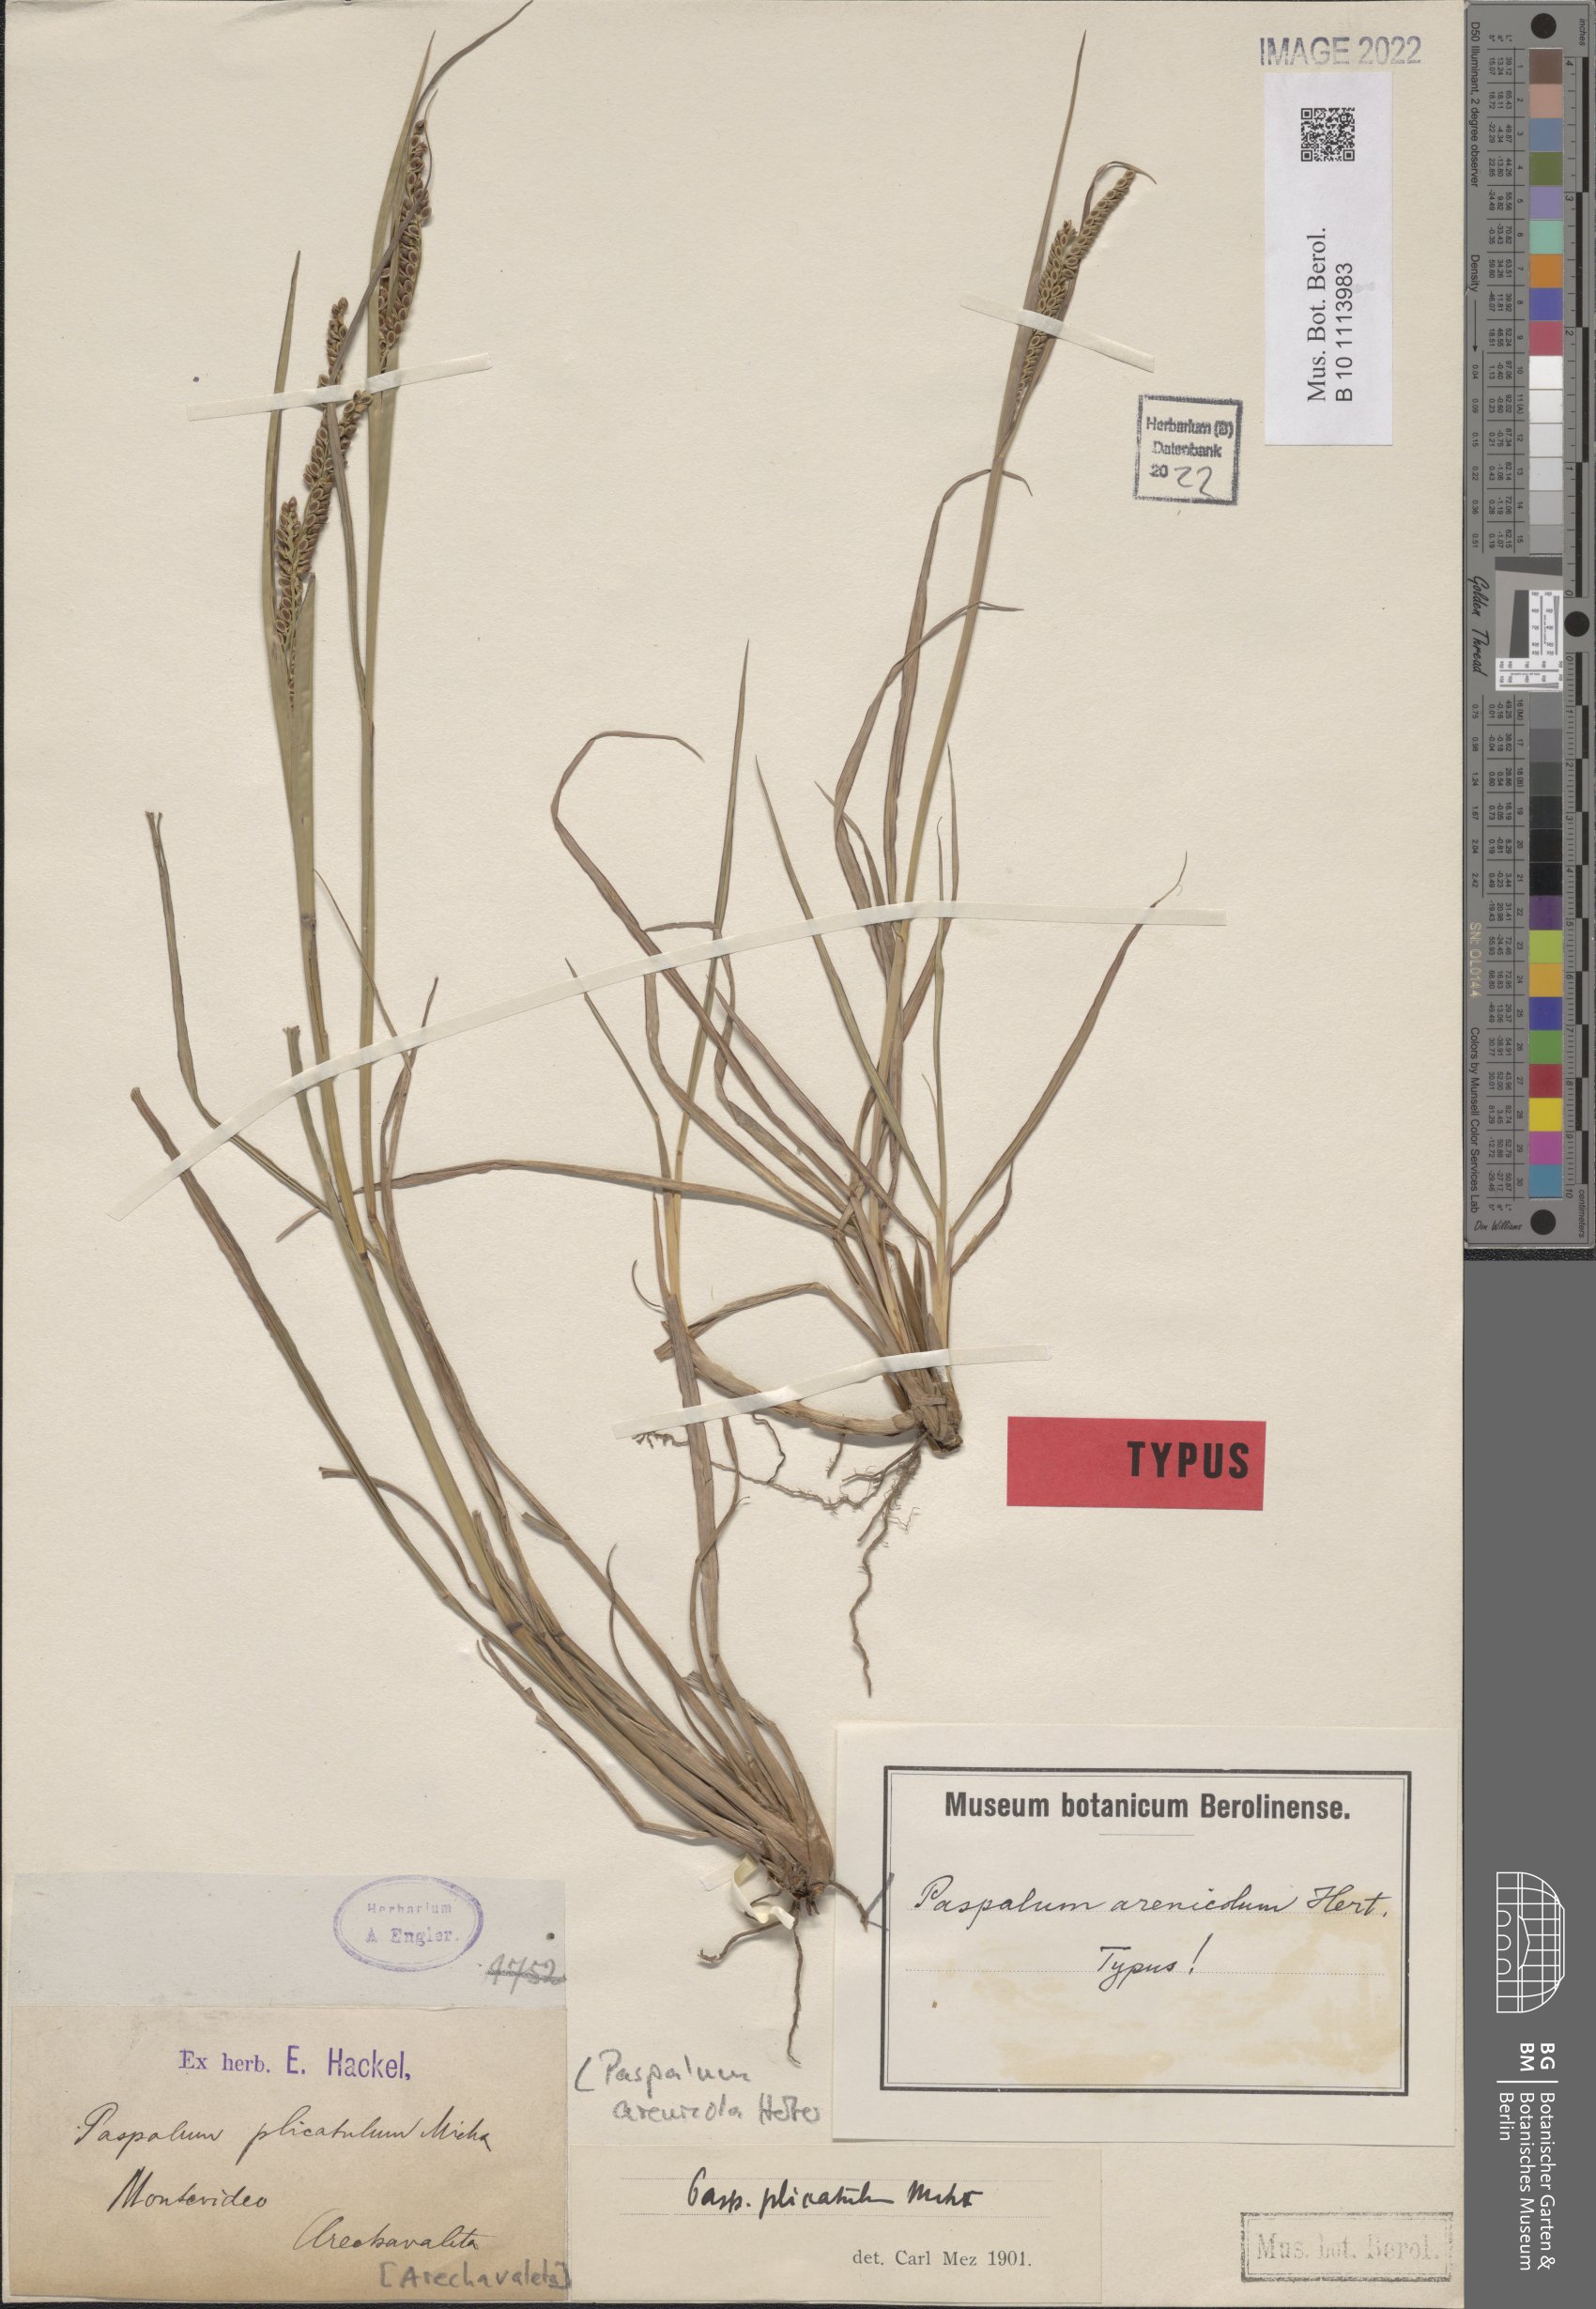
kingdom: Plantae
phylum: Tracheophyta
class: Liliopsida
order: Poales
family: Poaceae
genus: Paspalum
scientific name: Paspalum lepton
